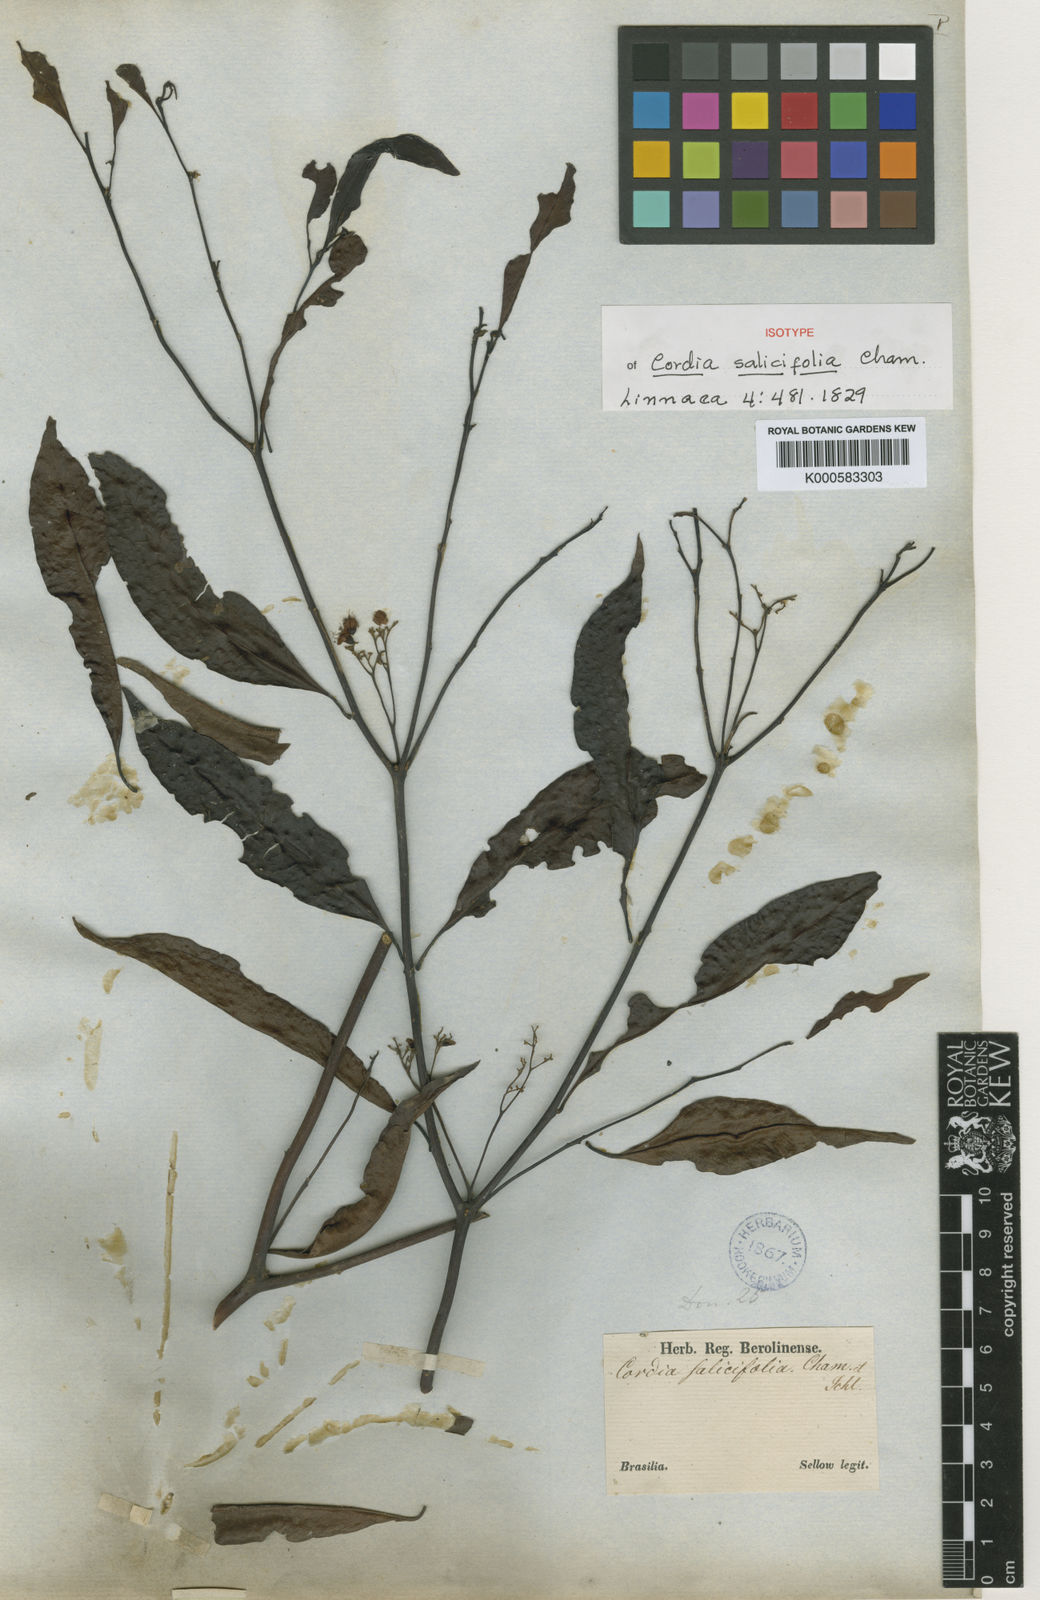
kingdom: Plantae
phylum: Tracheophyta
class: Magnoliopsida
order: Boraginales
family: Cordiaceae
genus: Cordia
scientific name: Cordia ecalyculata
